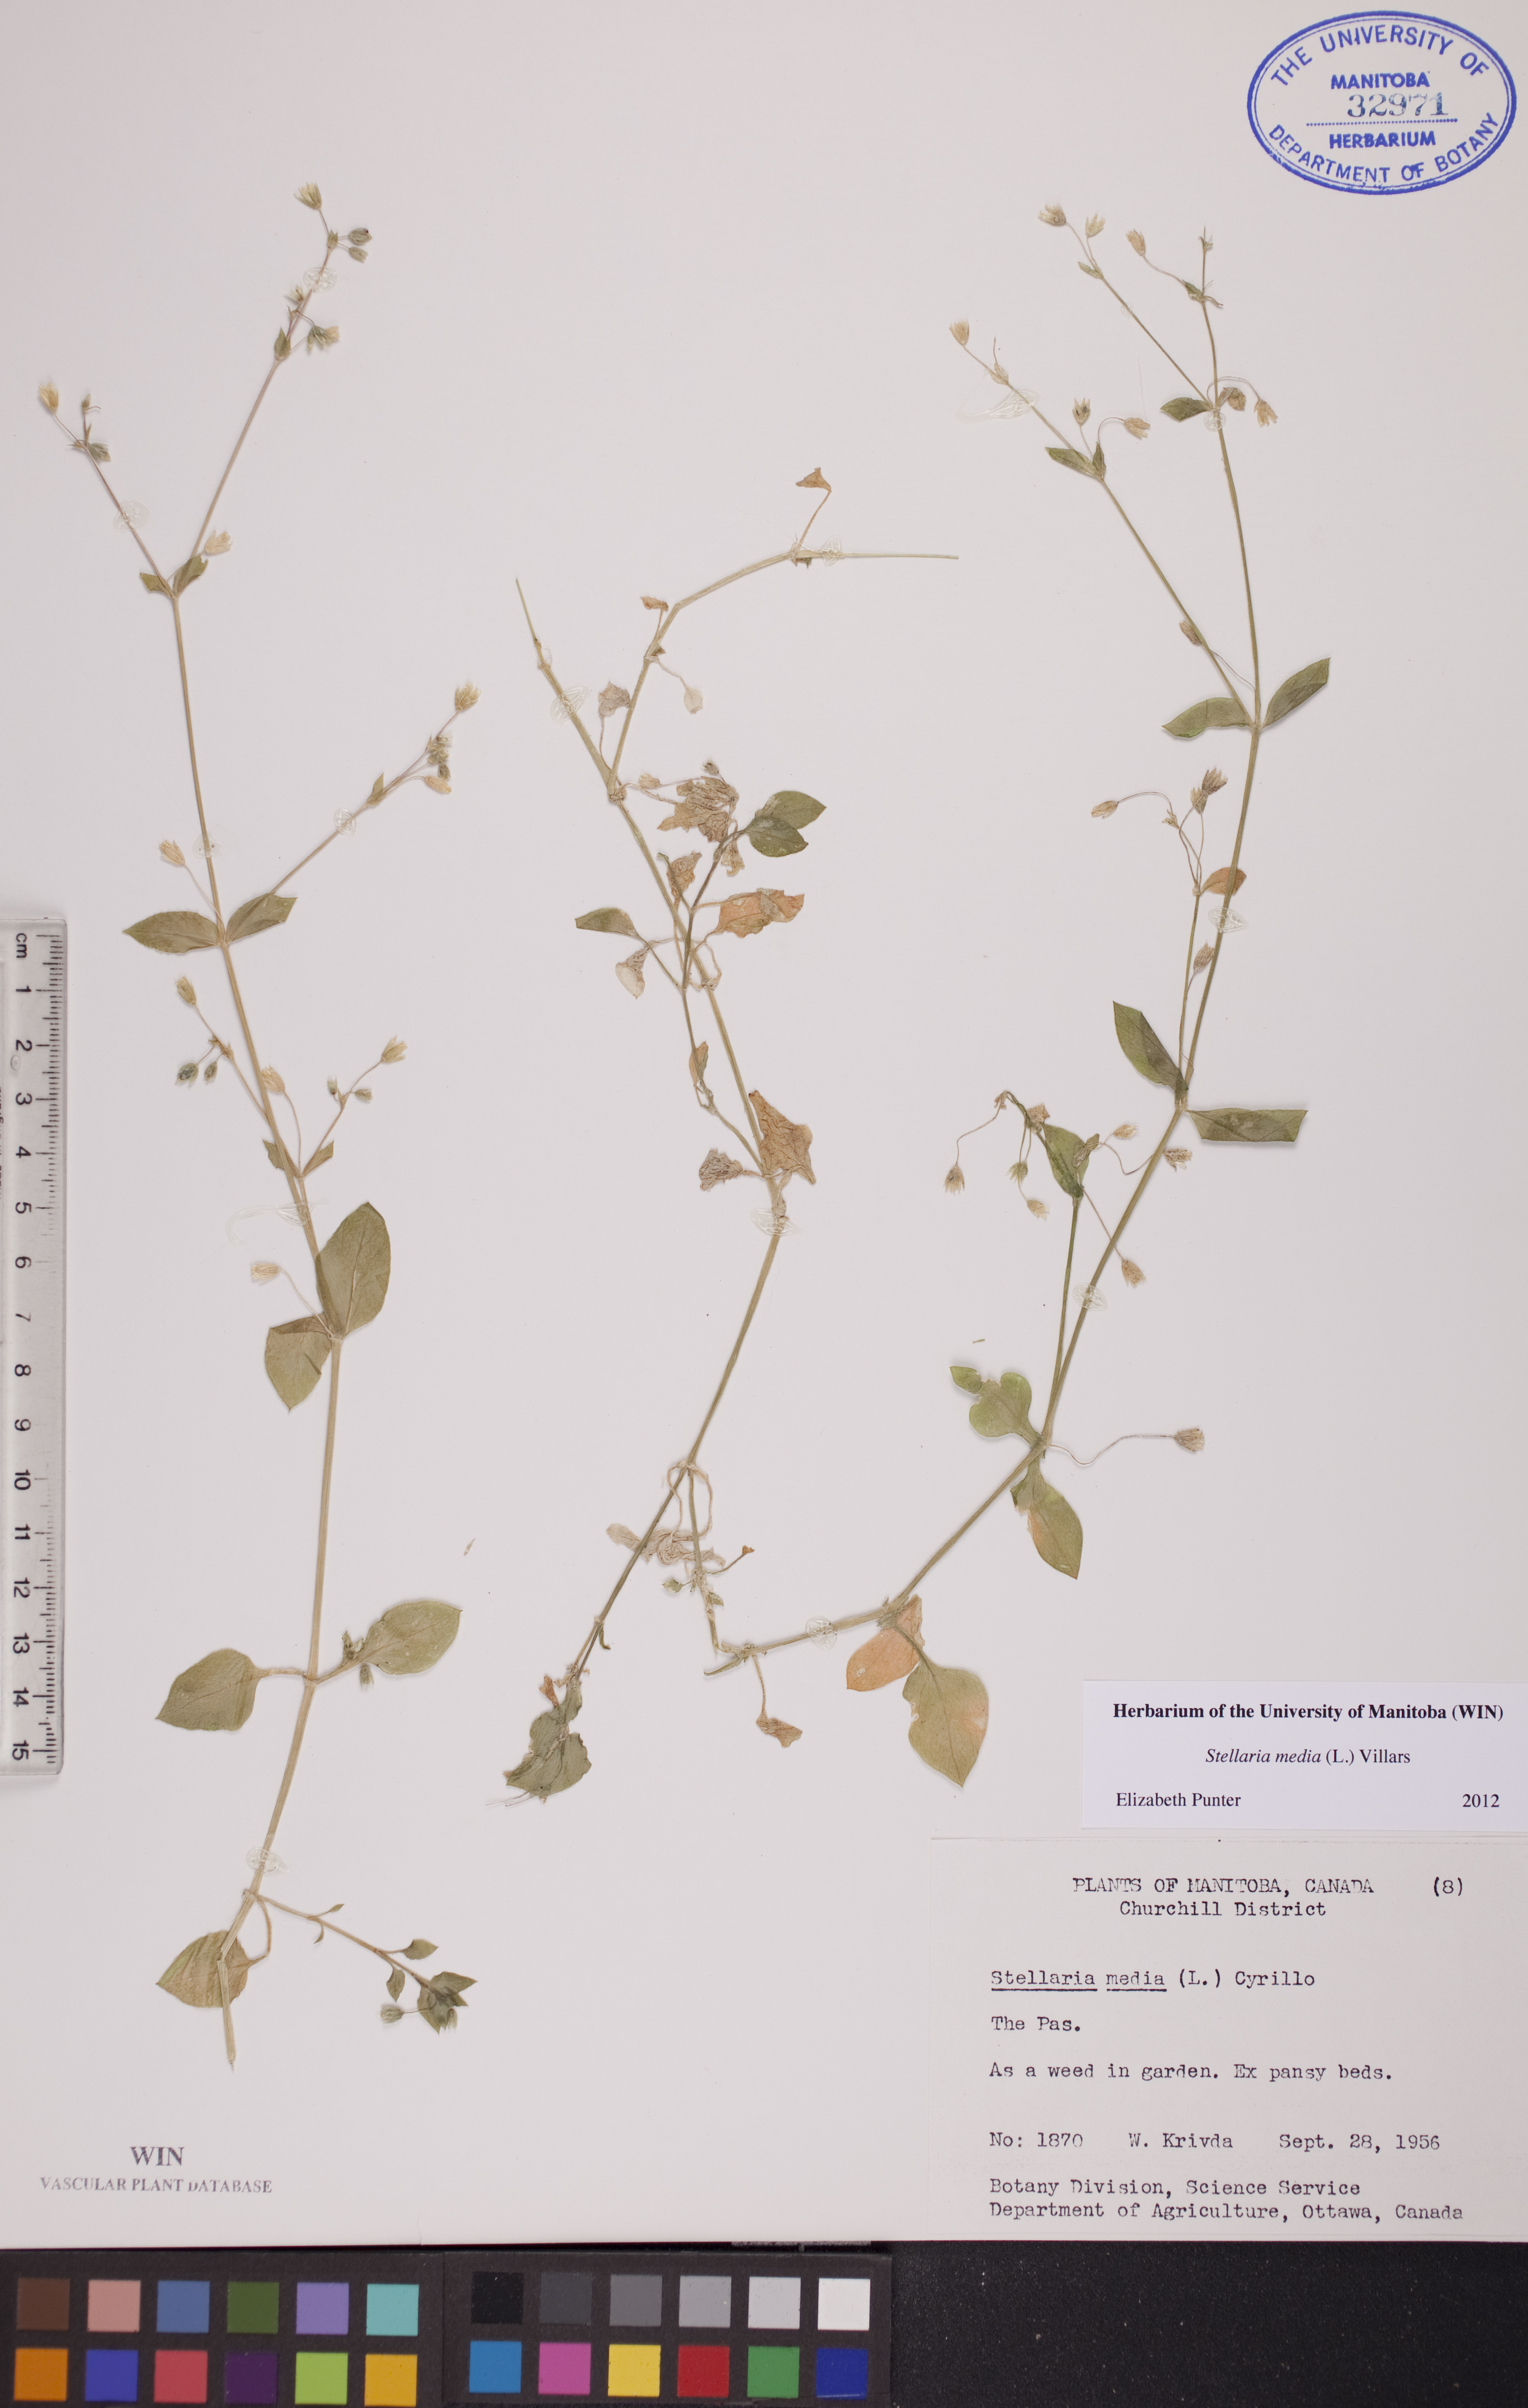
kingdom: Plantae
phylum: Tracheophyta
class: Magnoliopsida
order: Caryophyllales
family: Caryophyllaceae
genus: Stellaria
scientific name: Stellaria media
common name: Common chickweed
